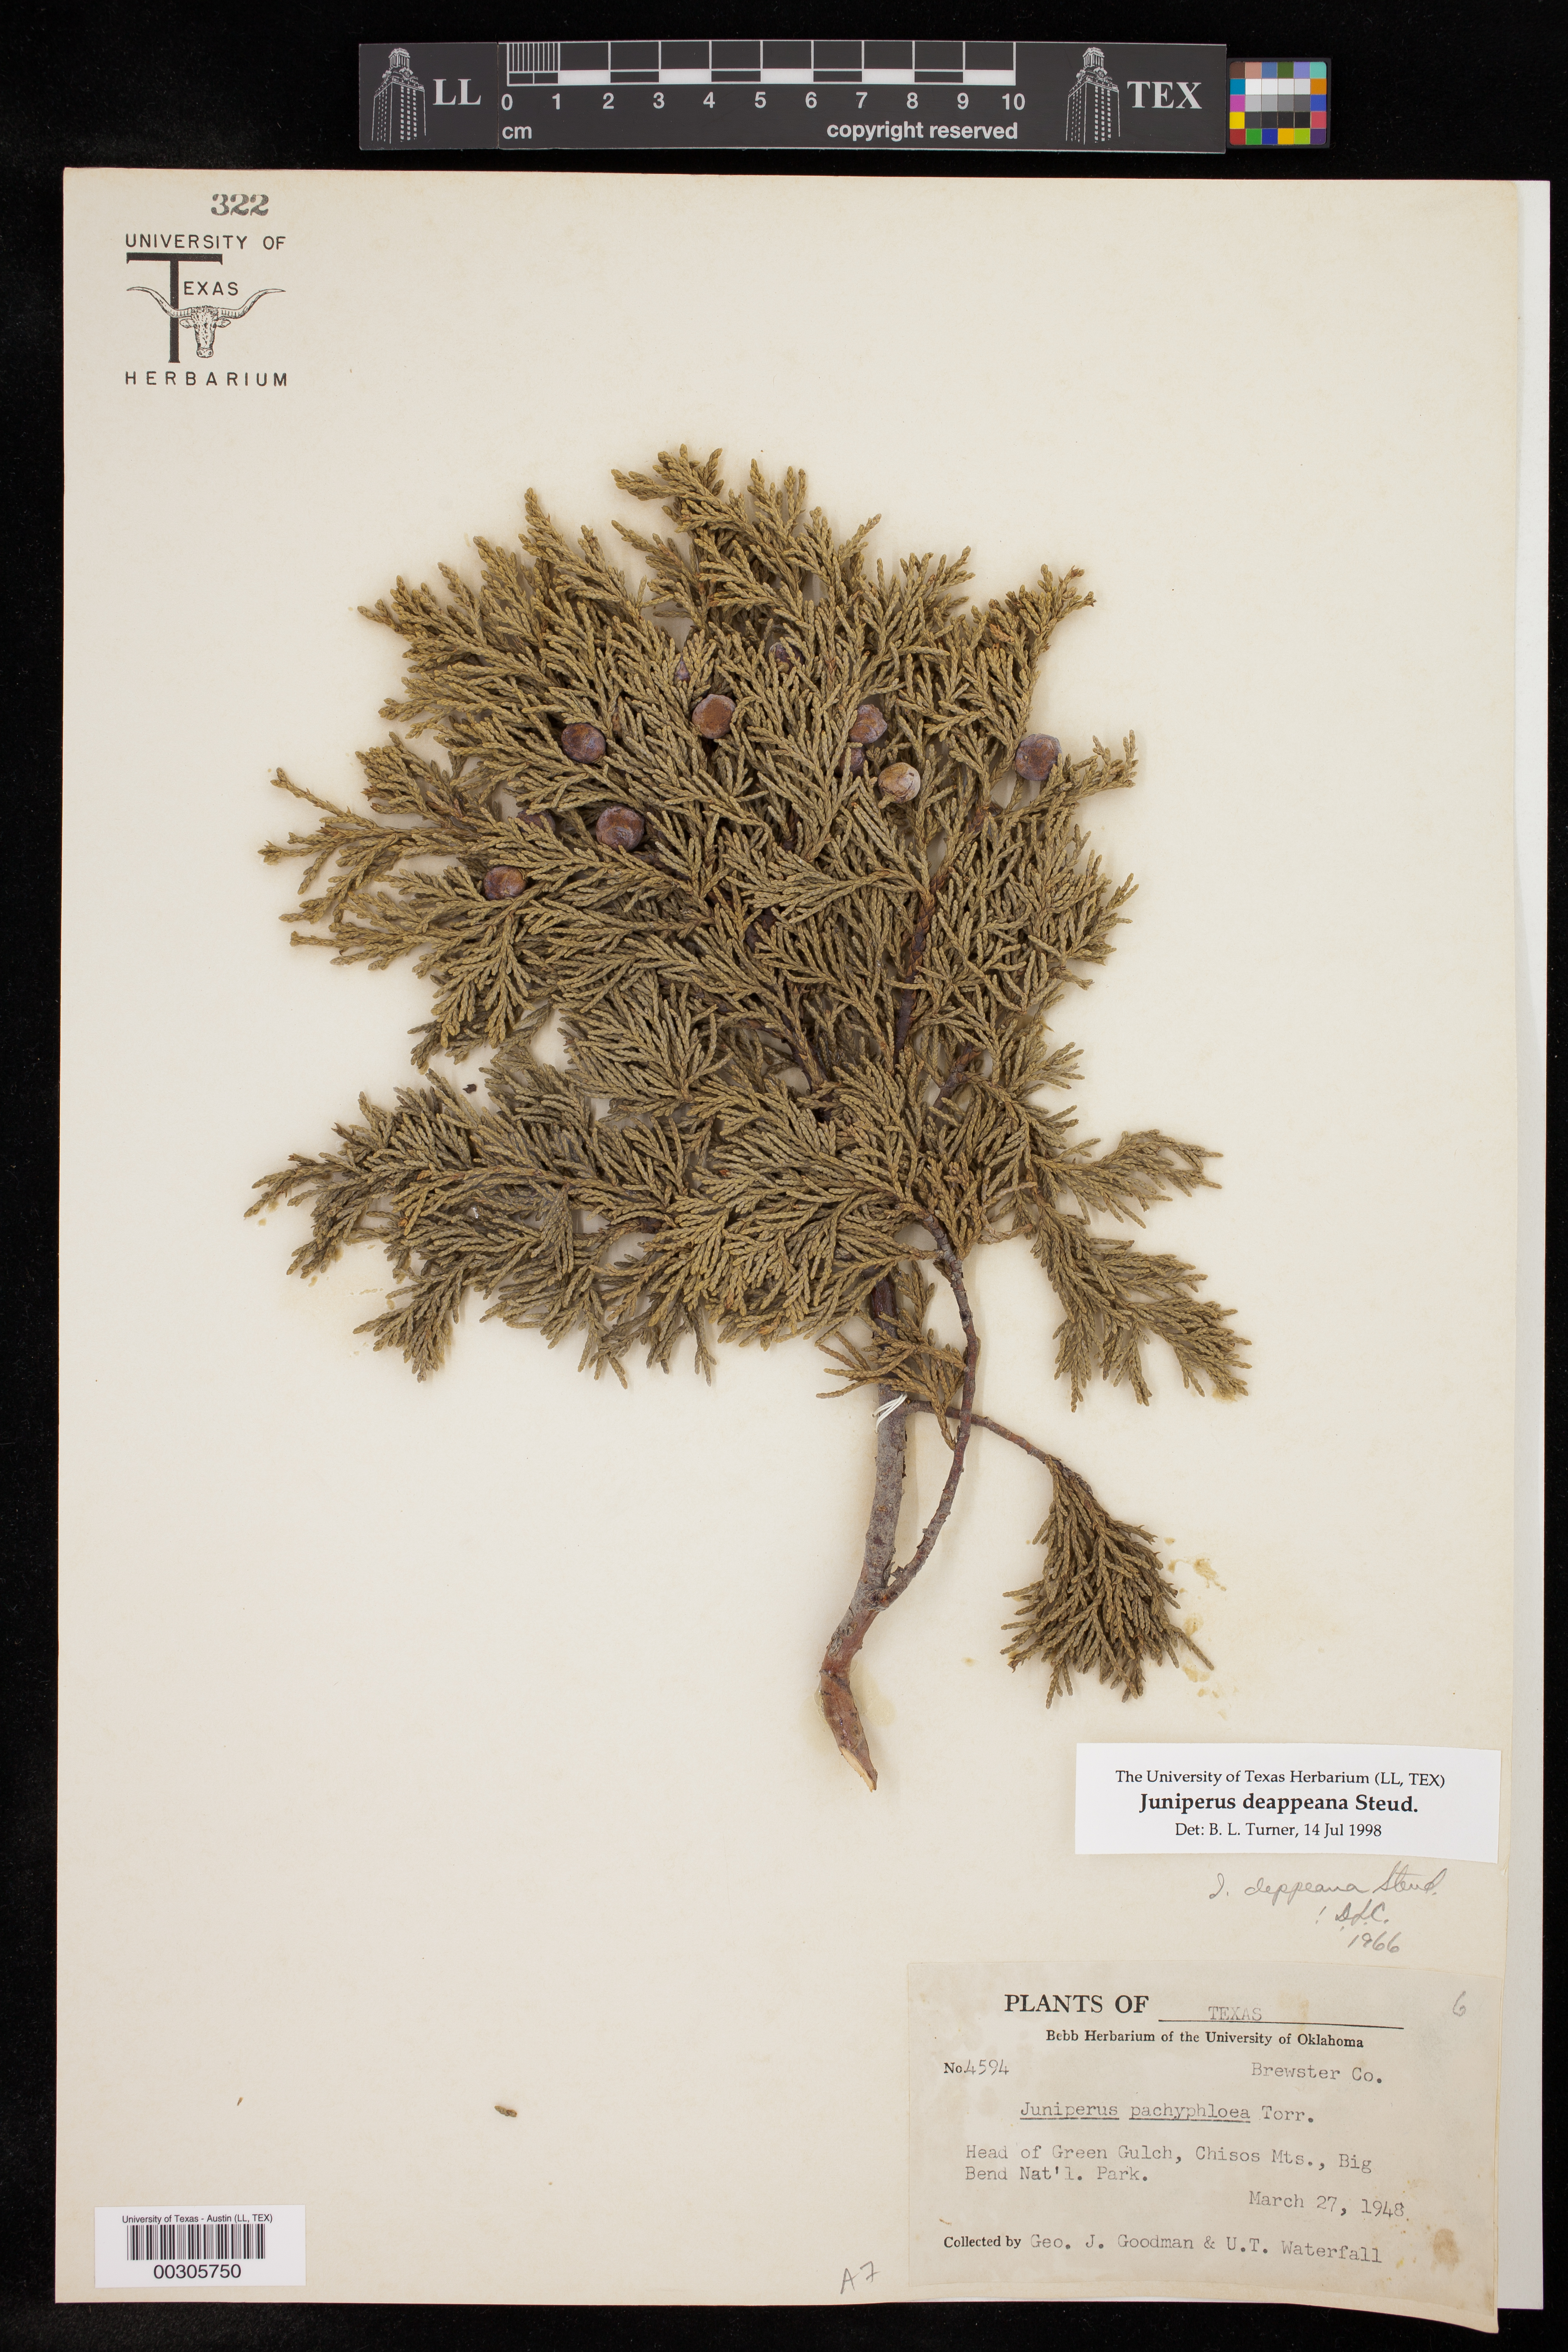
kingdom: Plantae
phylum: Tracheophyta
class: Pinopsida
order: Pinales
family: Cupressaceae
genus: Juniperus
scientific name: Juniperus deppeana
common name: Alligator juniper
